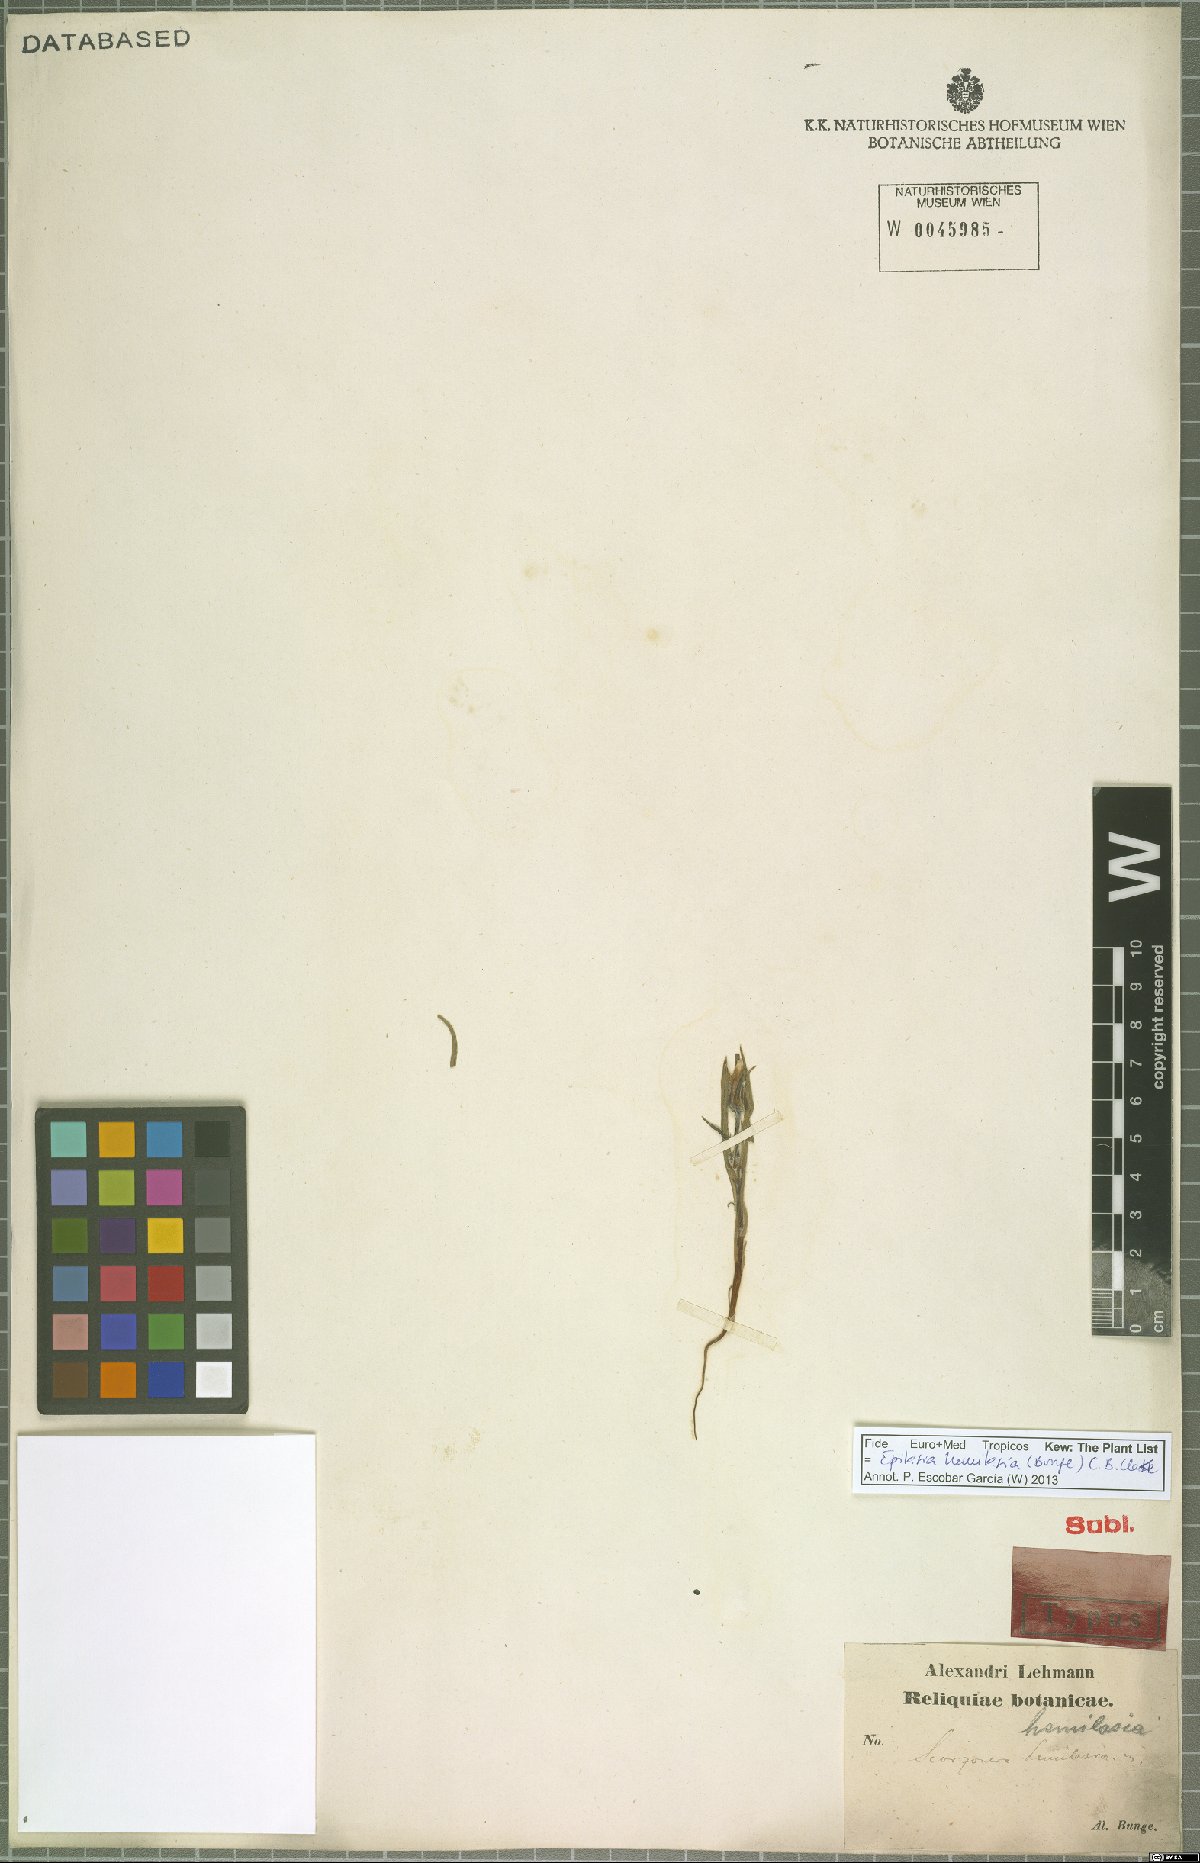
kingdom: Plantae
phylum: Tracheophyta
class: Magnoliopsida
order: Asterales
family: Asteraceae
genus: Epilasia
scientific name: Epilasia hemilasia
